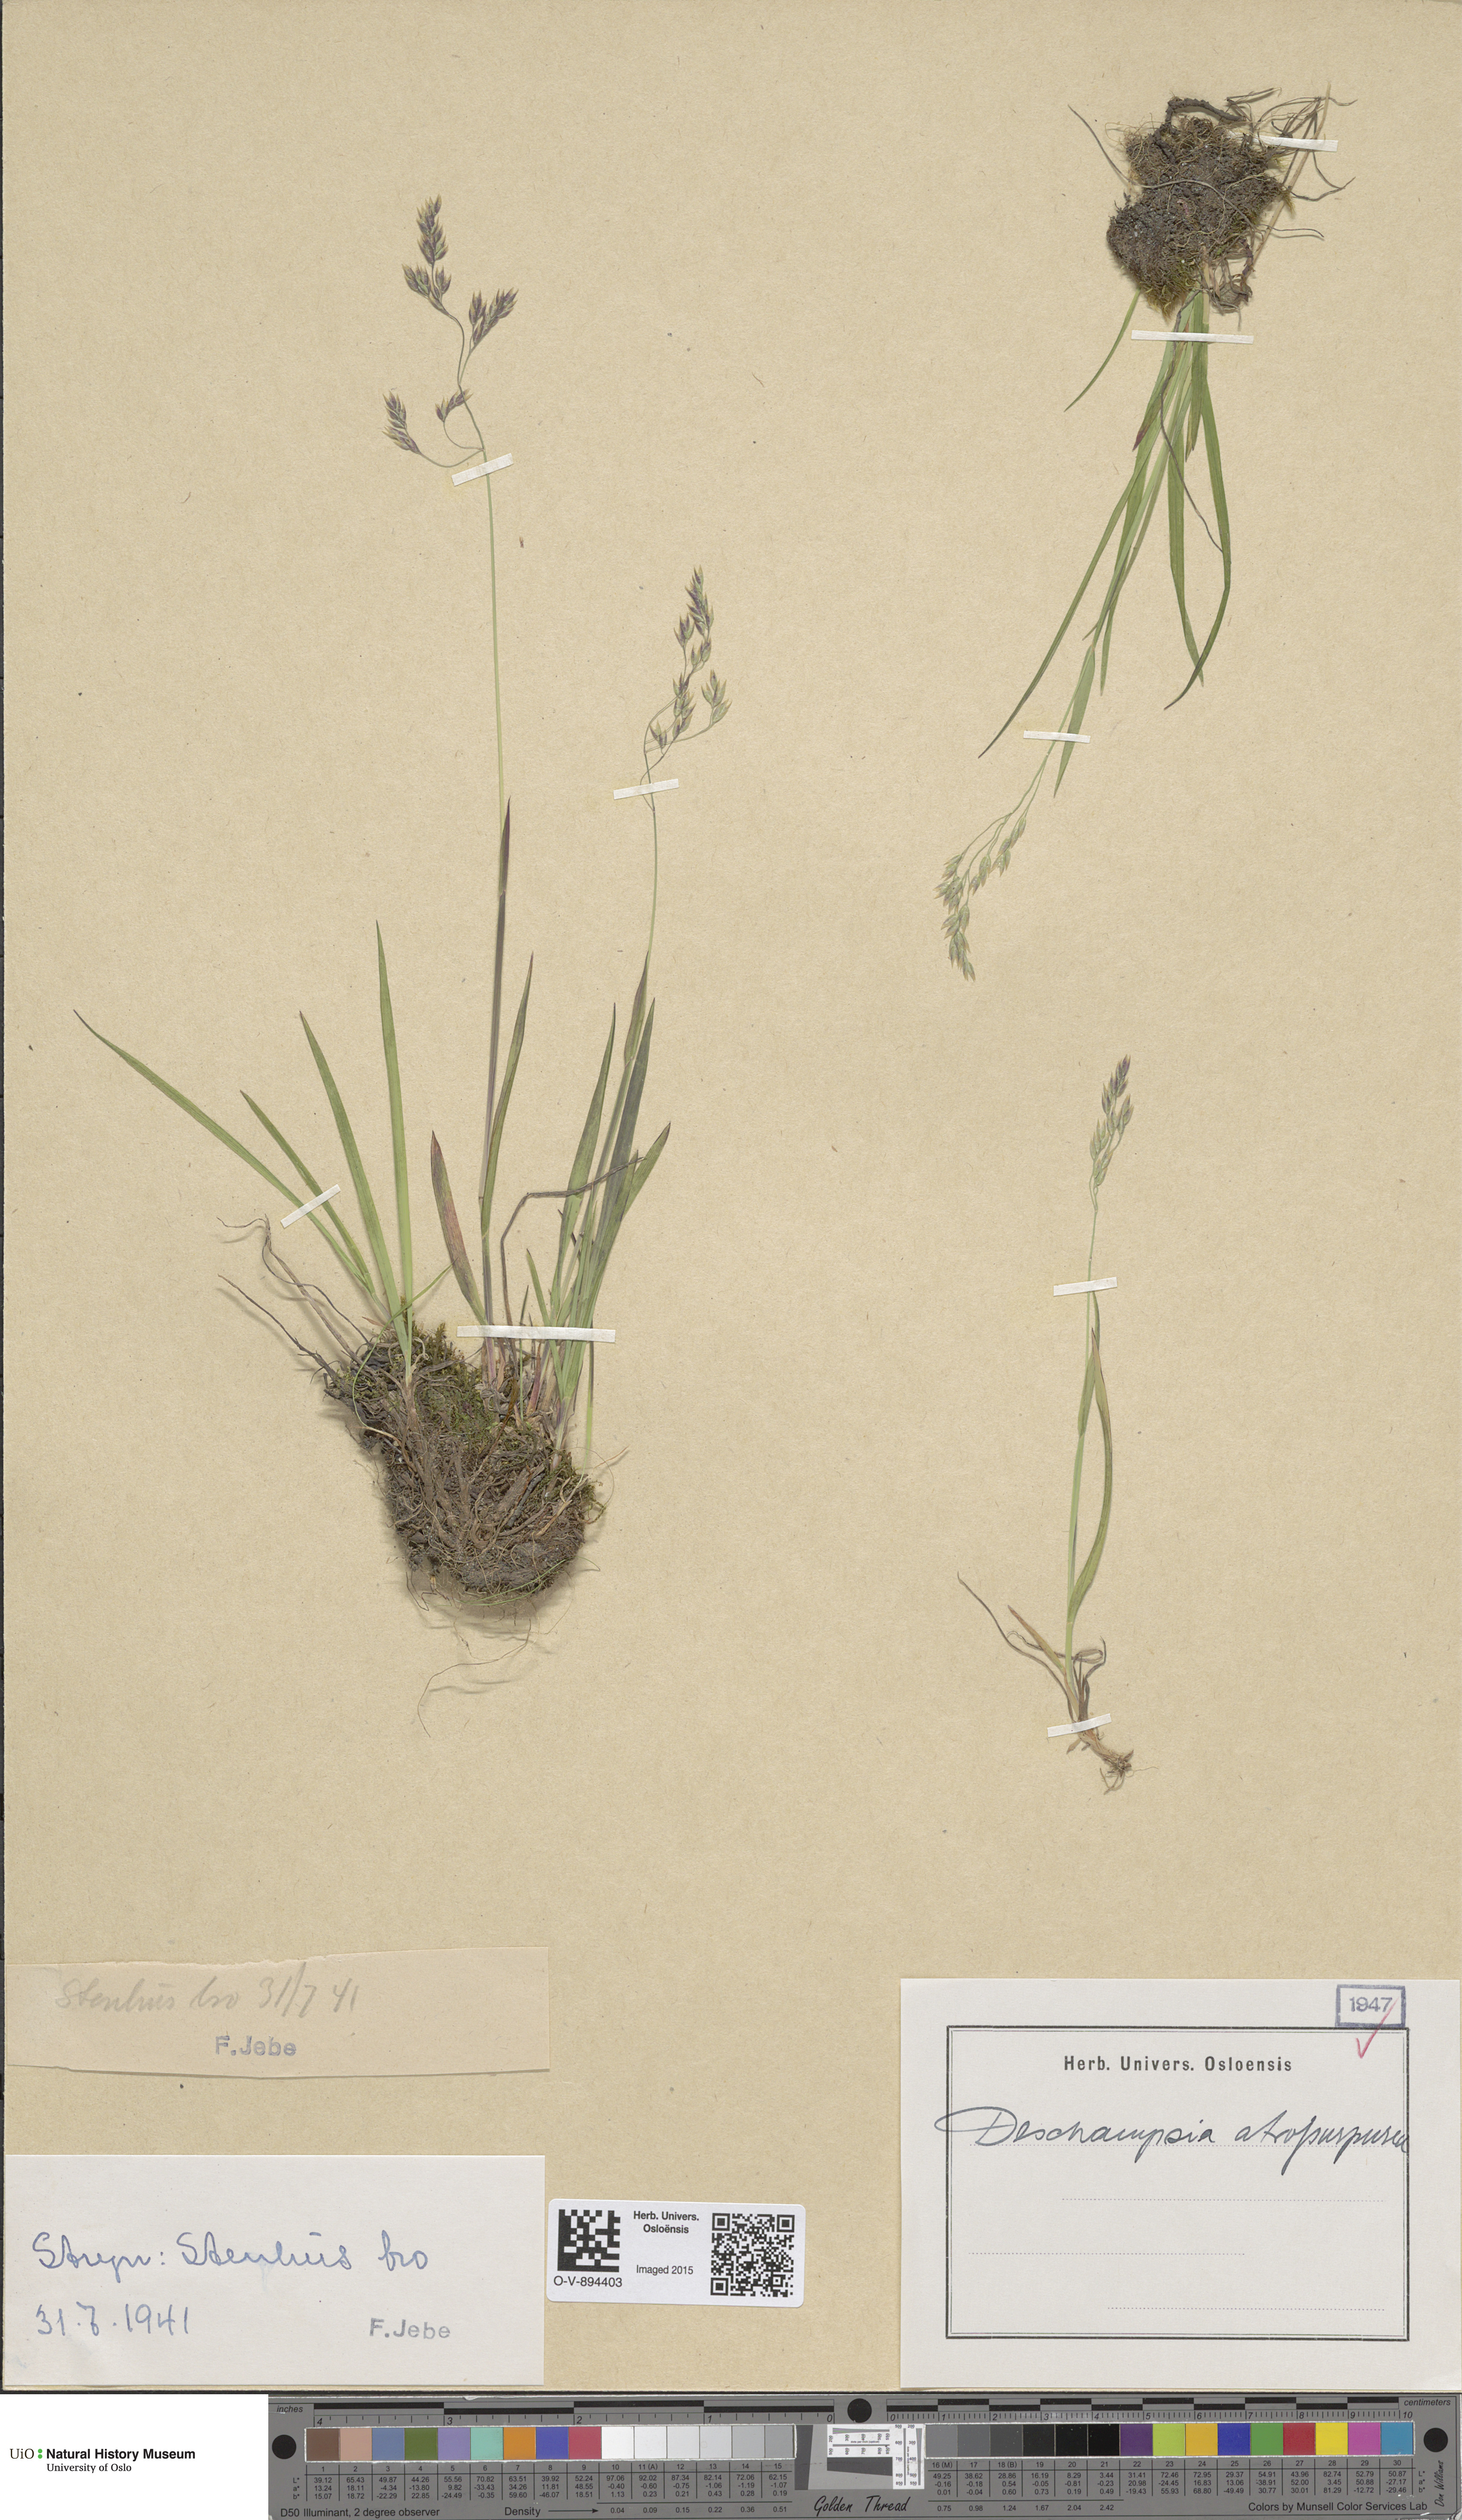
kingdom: Plantae
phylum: Tracheophyta
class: Liliopsida
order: Poales
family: Poaceae
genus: Vahlodea
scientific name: Vahlodea atropurpurea
